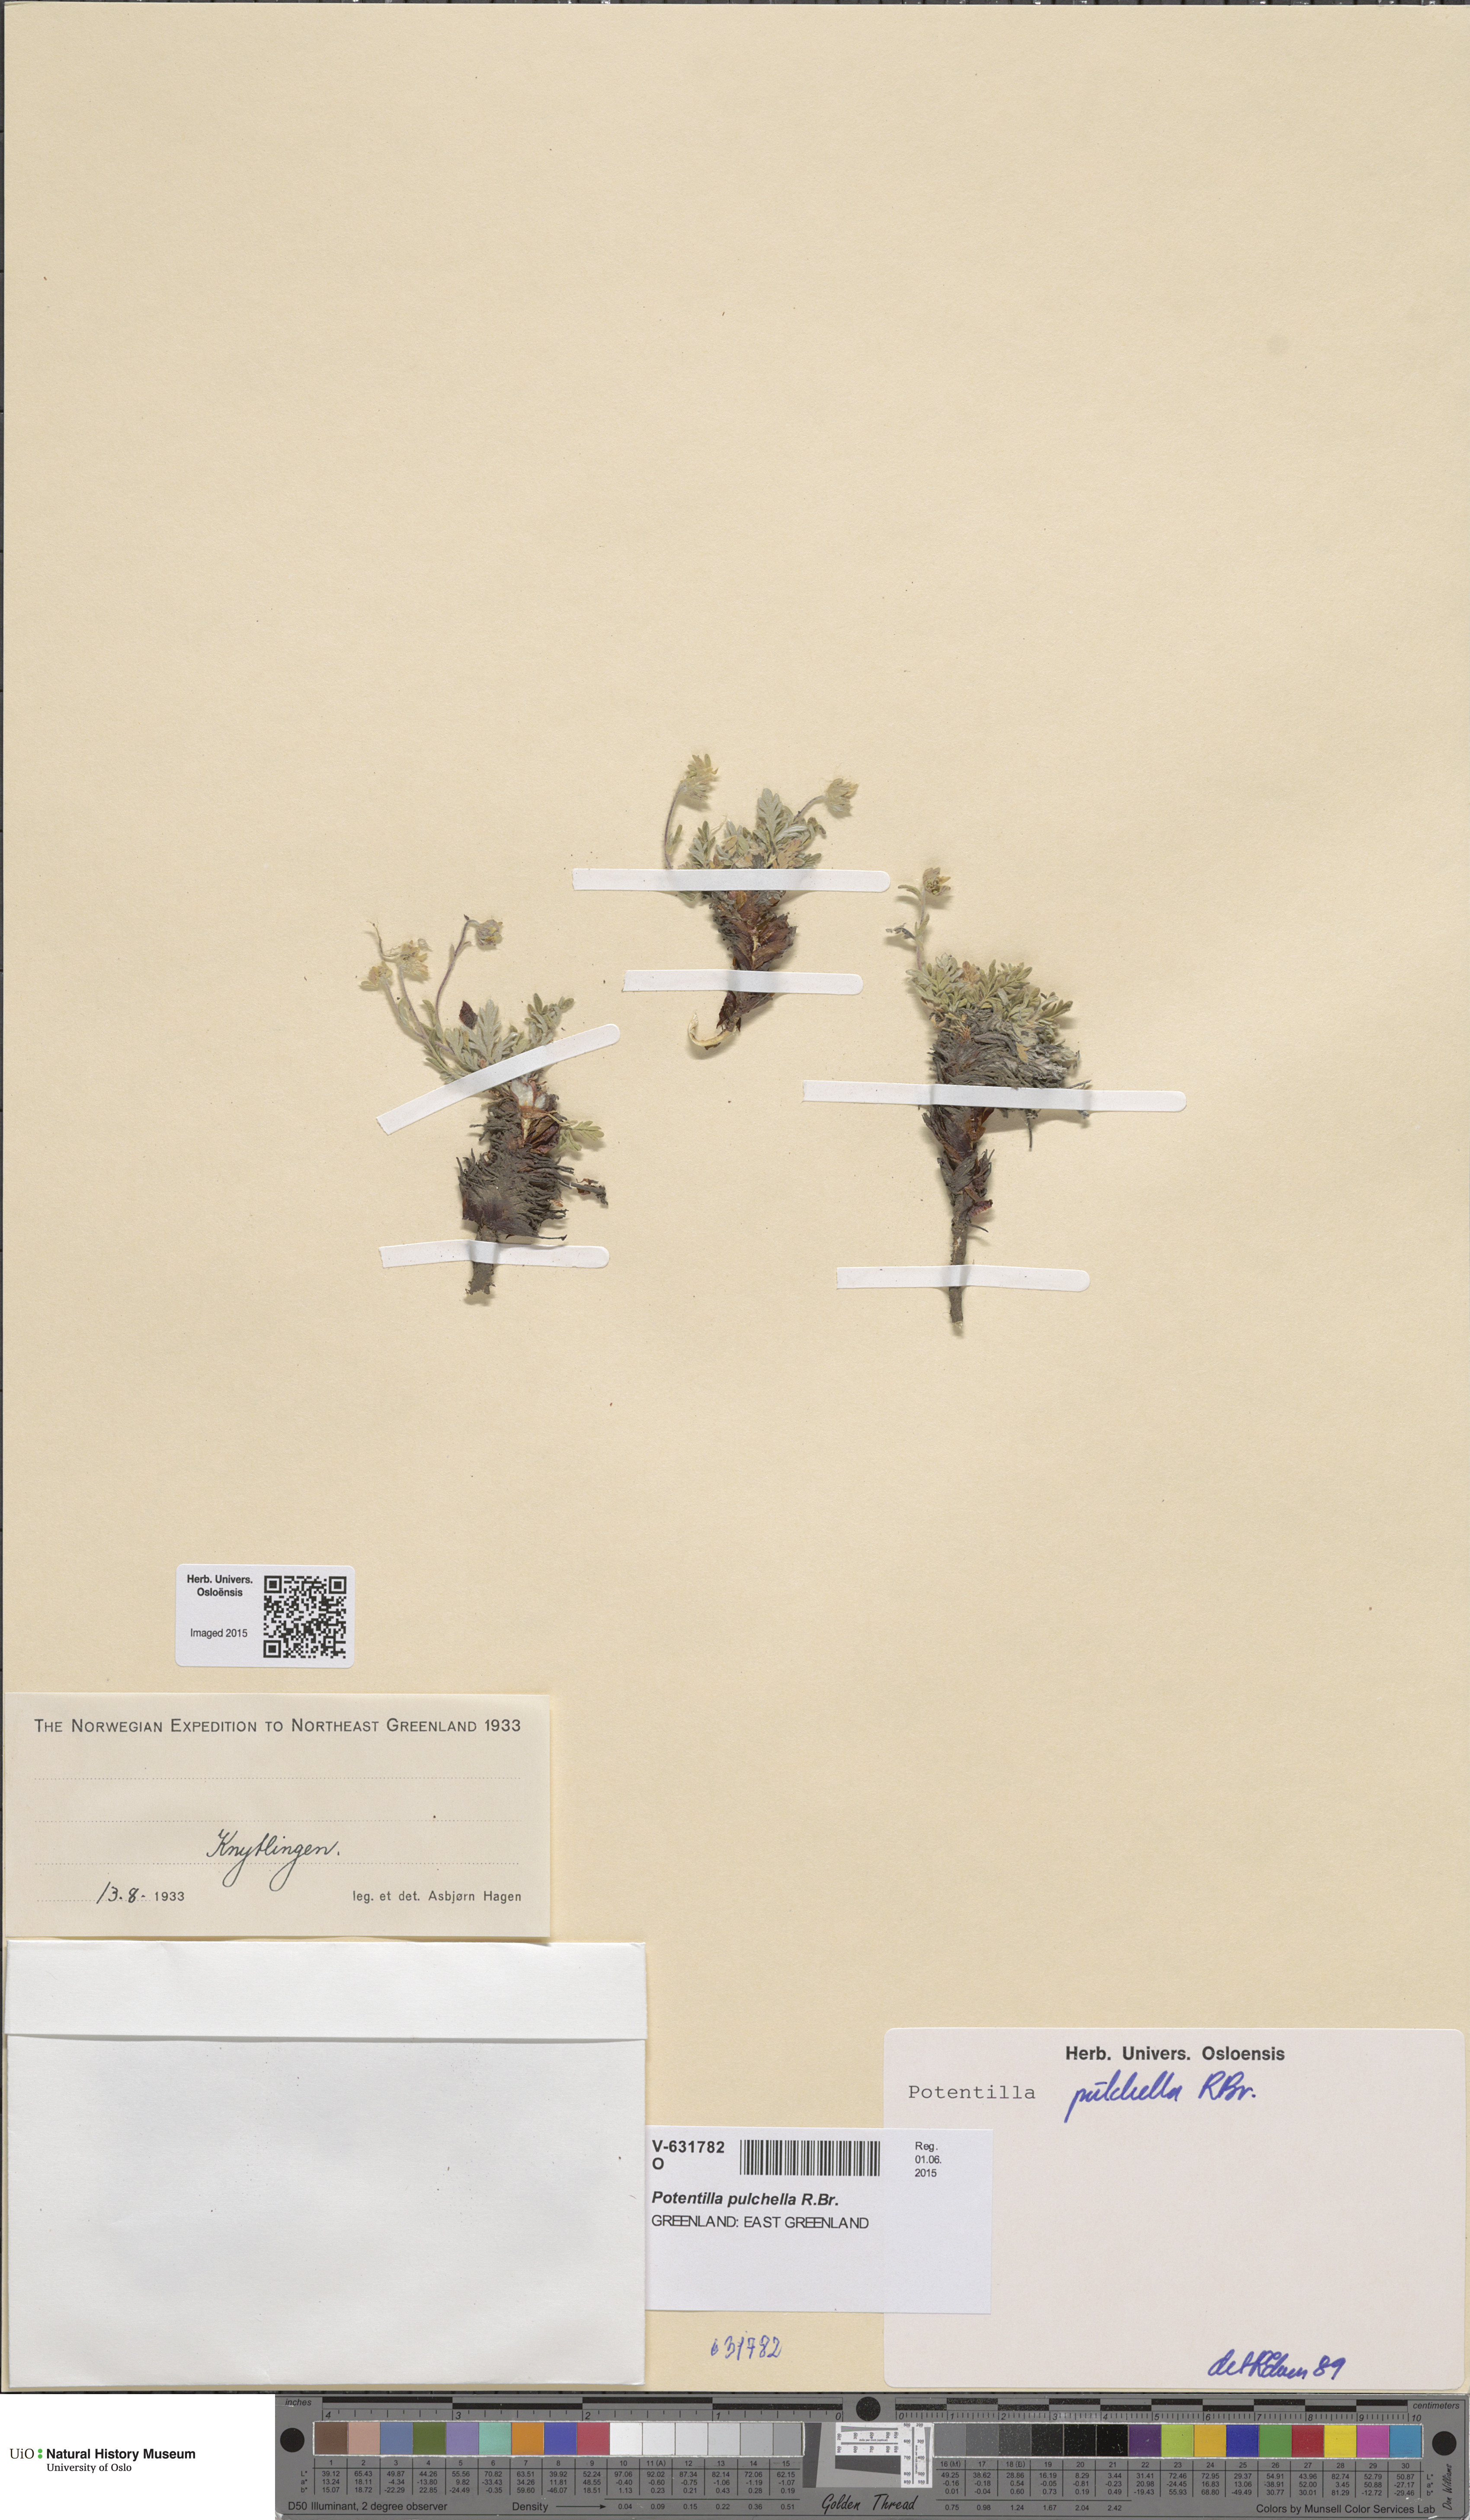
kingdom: Plantae
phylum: Tracheophyta
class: Magnoliopsida
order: Rosales
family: Rosaceae
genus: Potentilla
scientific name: Potentilla pulchella
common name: Pretty cinquefoil
